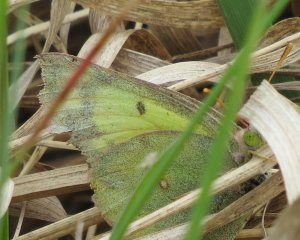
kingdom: Animalia
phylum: Arthropoda
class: Insecta
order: Lepidoptera
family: Pieridae
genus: Colias
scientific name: Colias eurytheme
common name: Orange Sulphur
